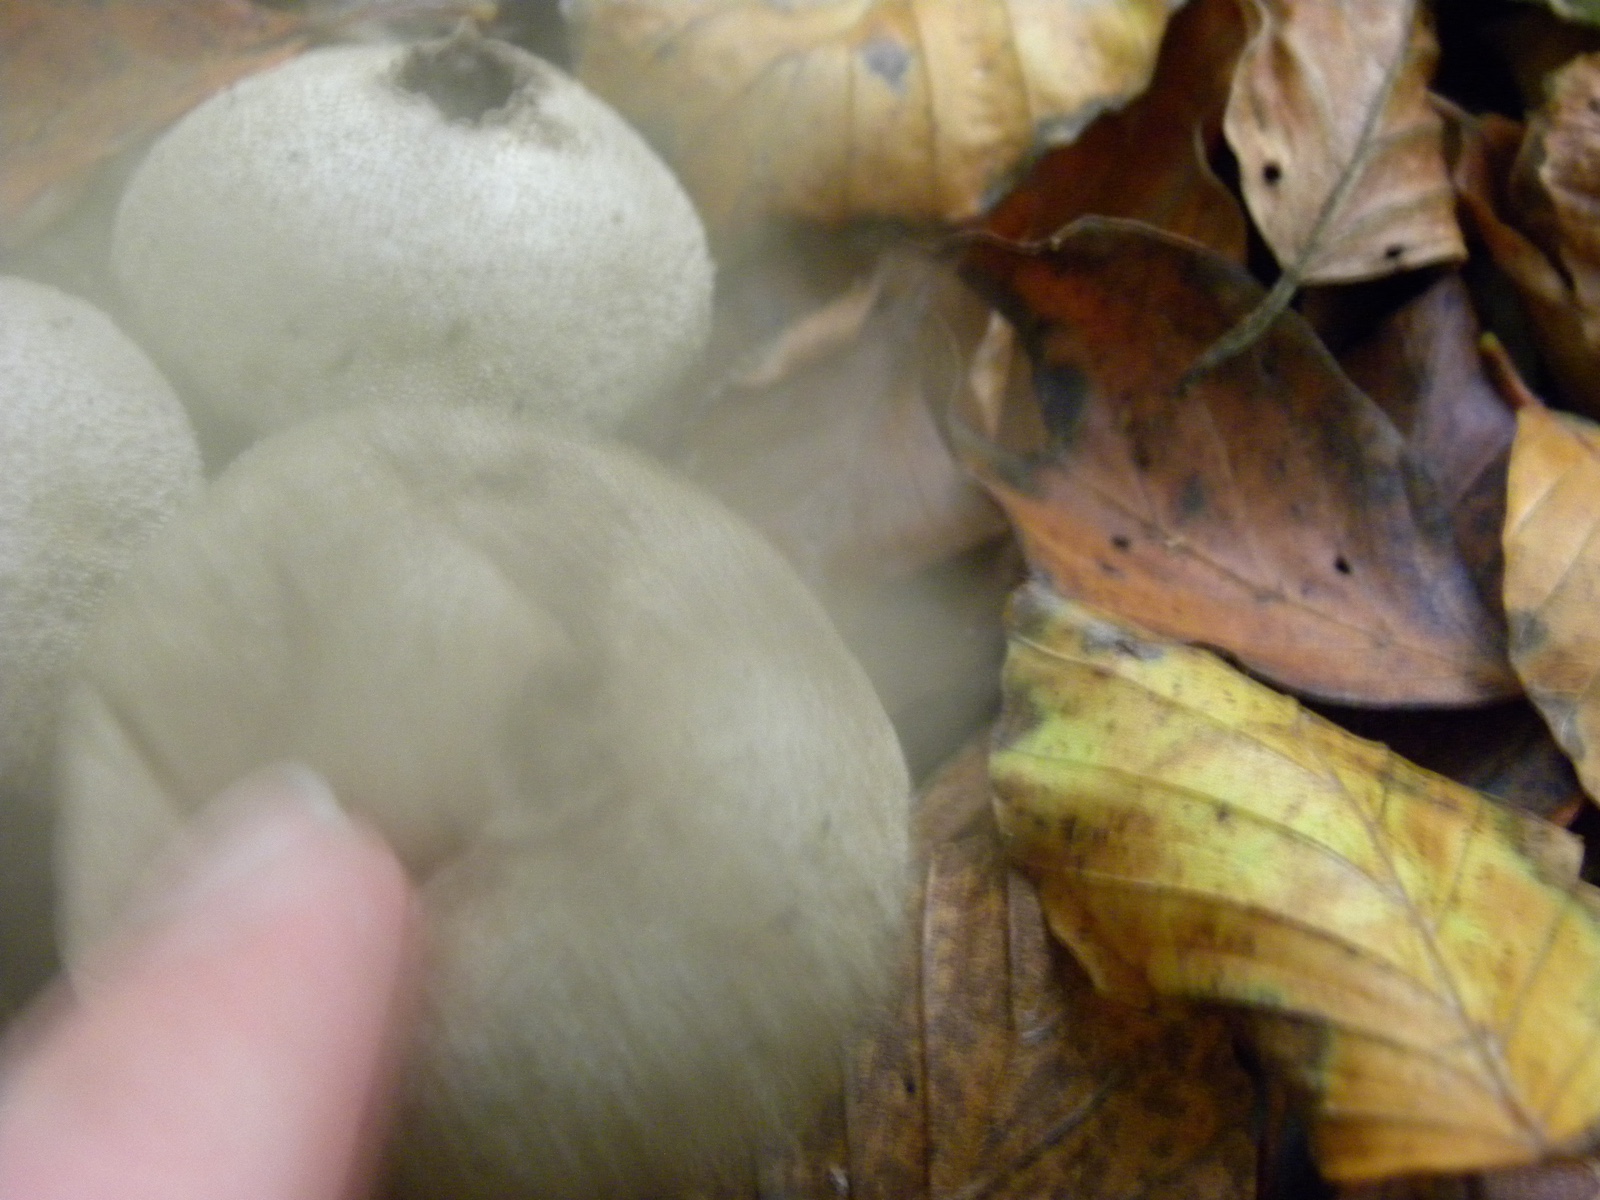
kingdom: Fungi
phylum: Basidiomycota
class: Agaricomycetes
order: Agaricales
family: Lycoperdaceae
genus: Lycoperdon
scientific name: Lycoperdon perlatum
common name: krystal-støvbold
